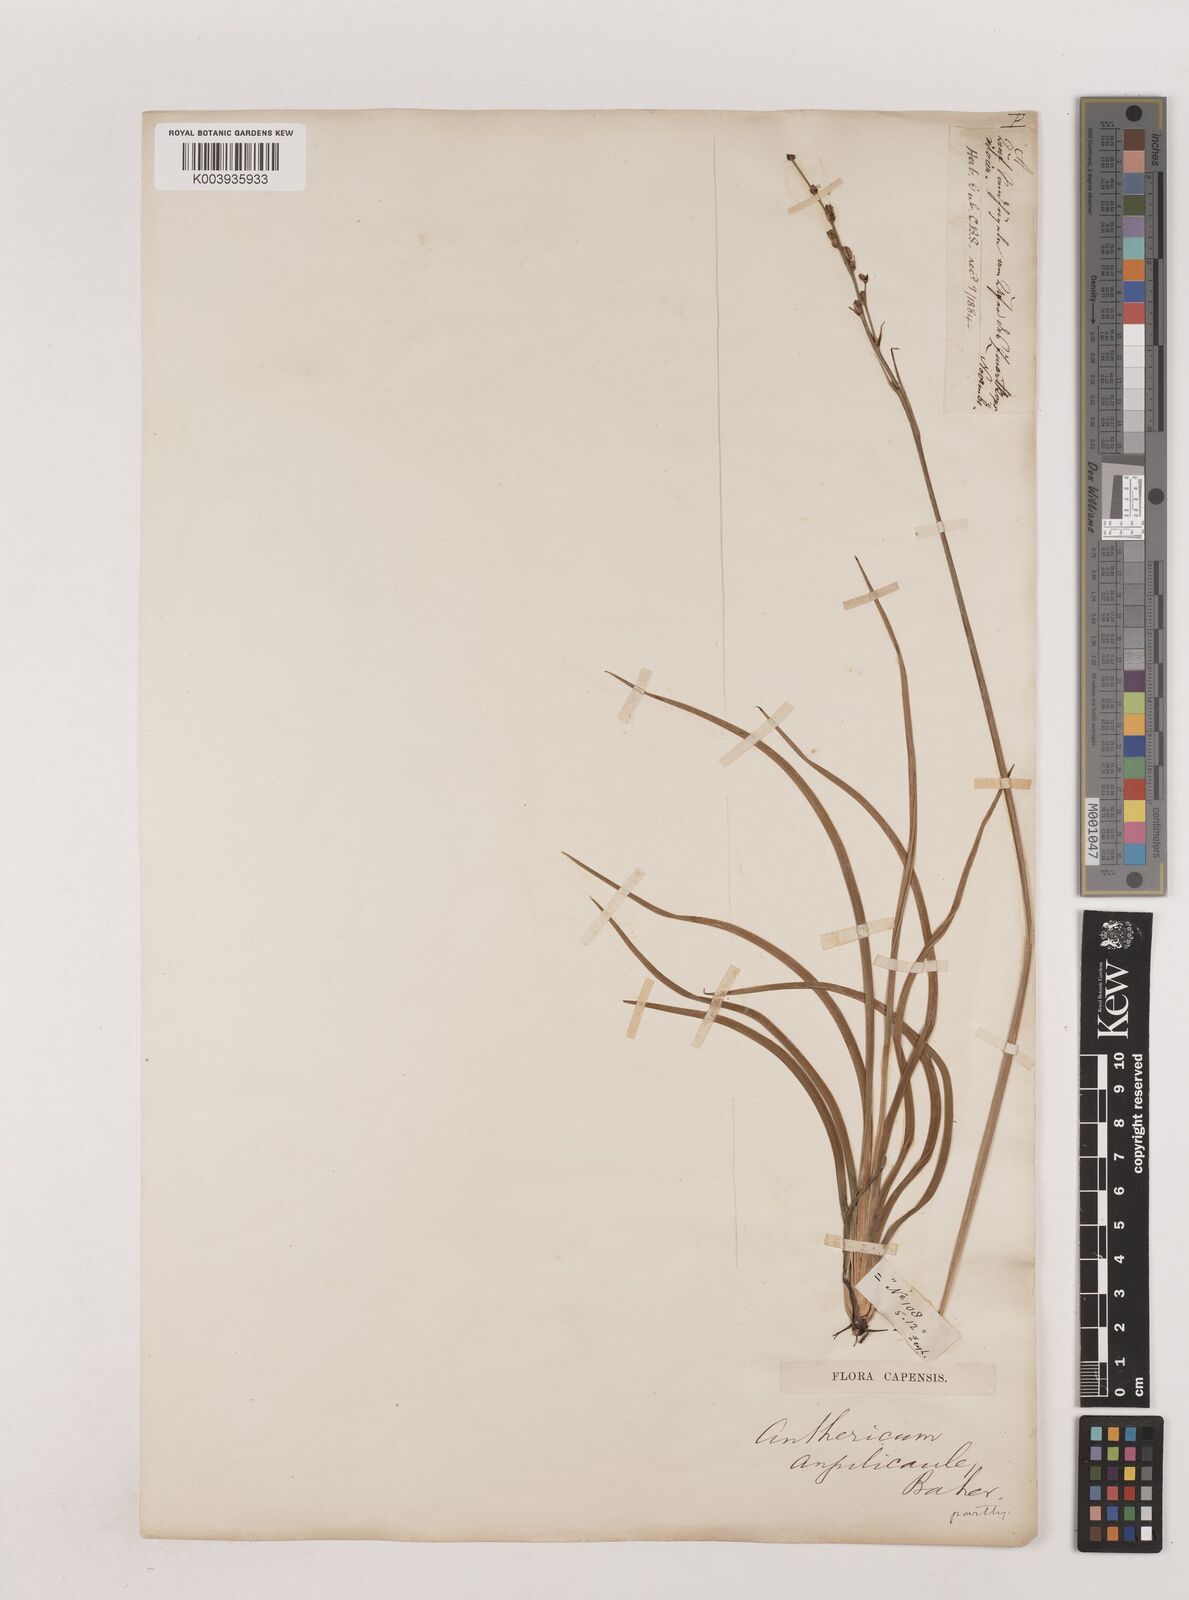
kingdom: Plantae
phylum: Tracheophyta
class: Liliopsida
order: Asparagales
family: Asparagaceae
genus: Chlorophytum
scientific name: Chlorophytum angulicaule
